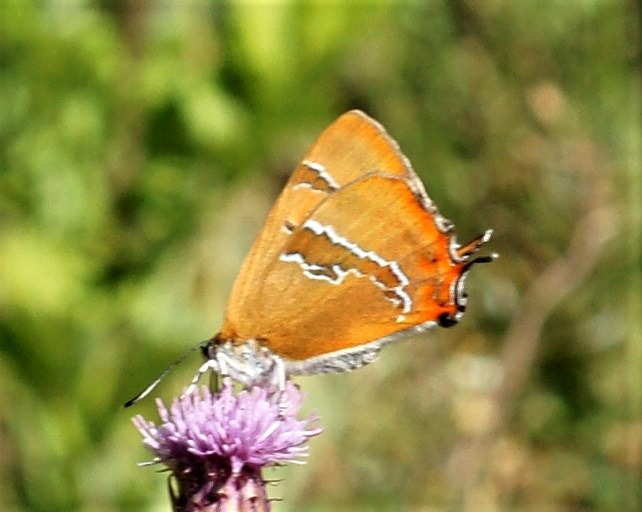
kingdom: Animalia
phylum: Arthropoda
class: Insecta
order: Lepidoptera
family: Lycaenidae
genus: Thecla
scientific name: Thecla betulae
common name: Guldhale
